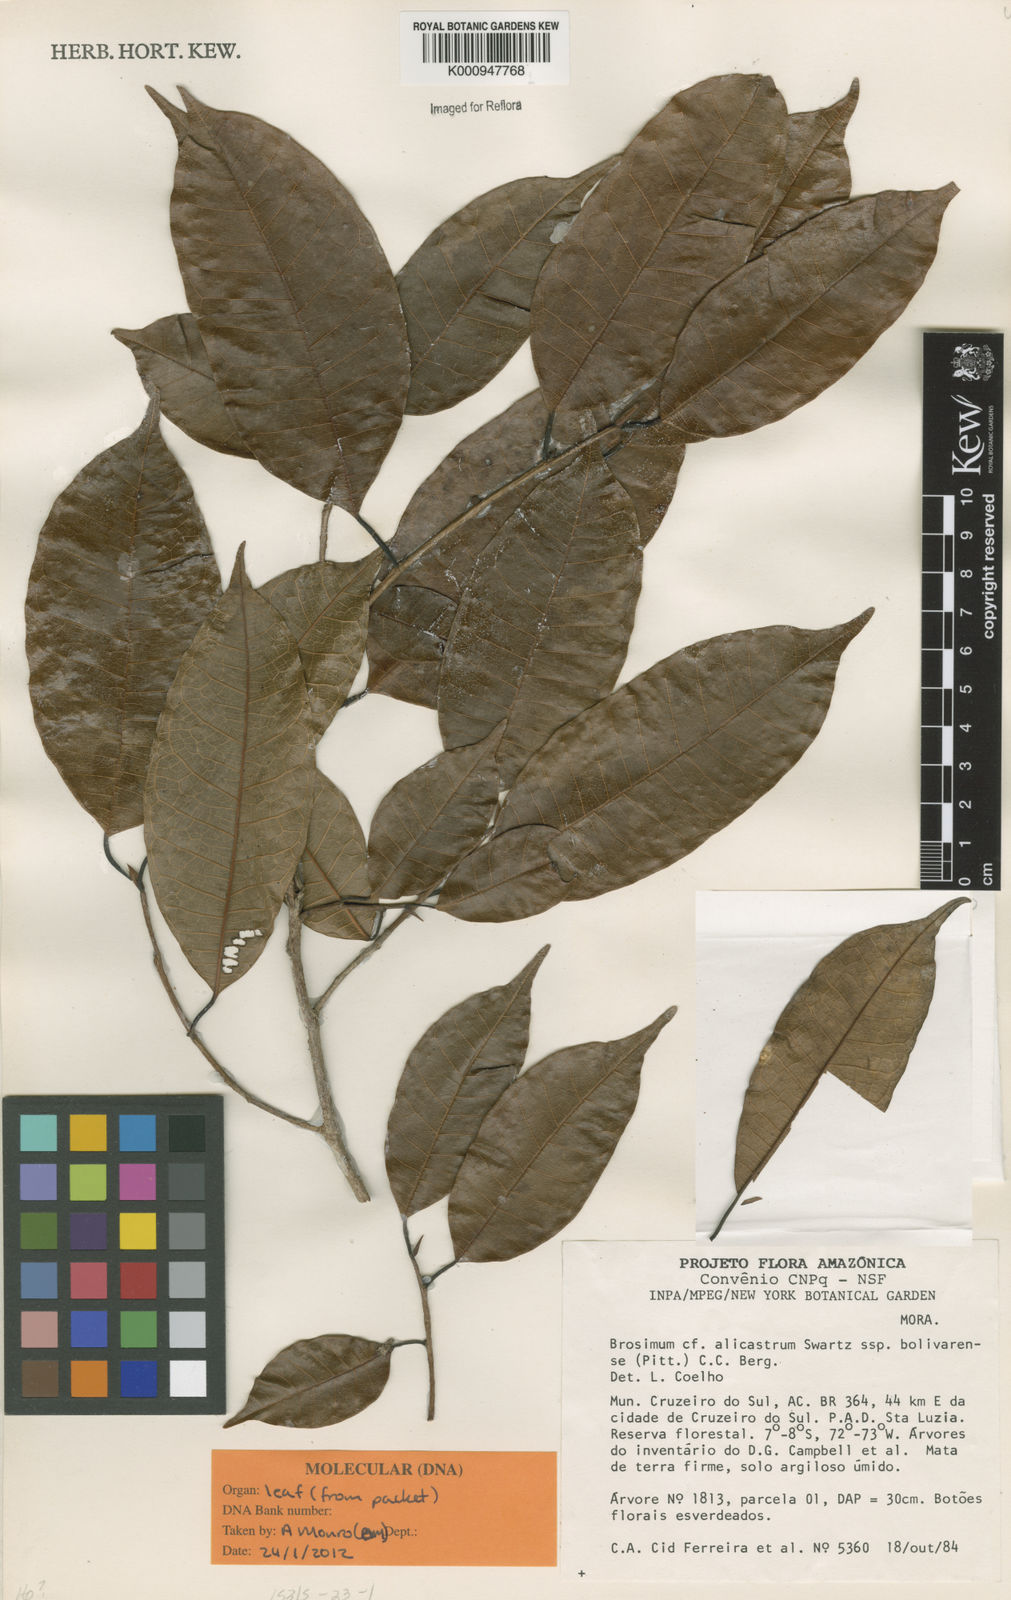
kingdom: Plantae
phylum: Tracheophyta
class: Magnoliopsida
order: Rosales
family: Moraceae
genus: Brosimum
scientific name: Brosimum alicastrum
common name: Breadnut
